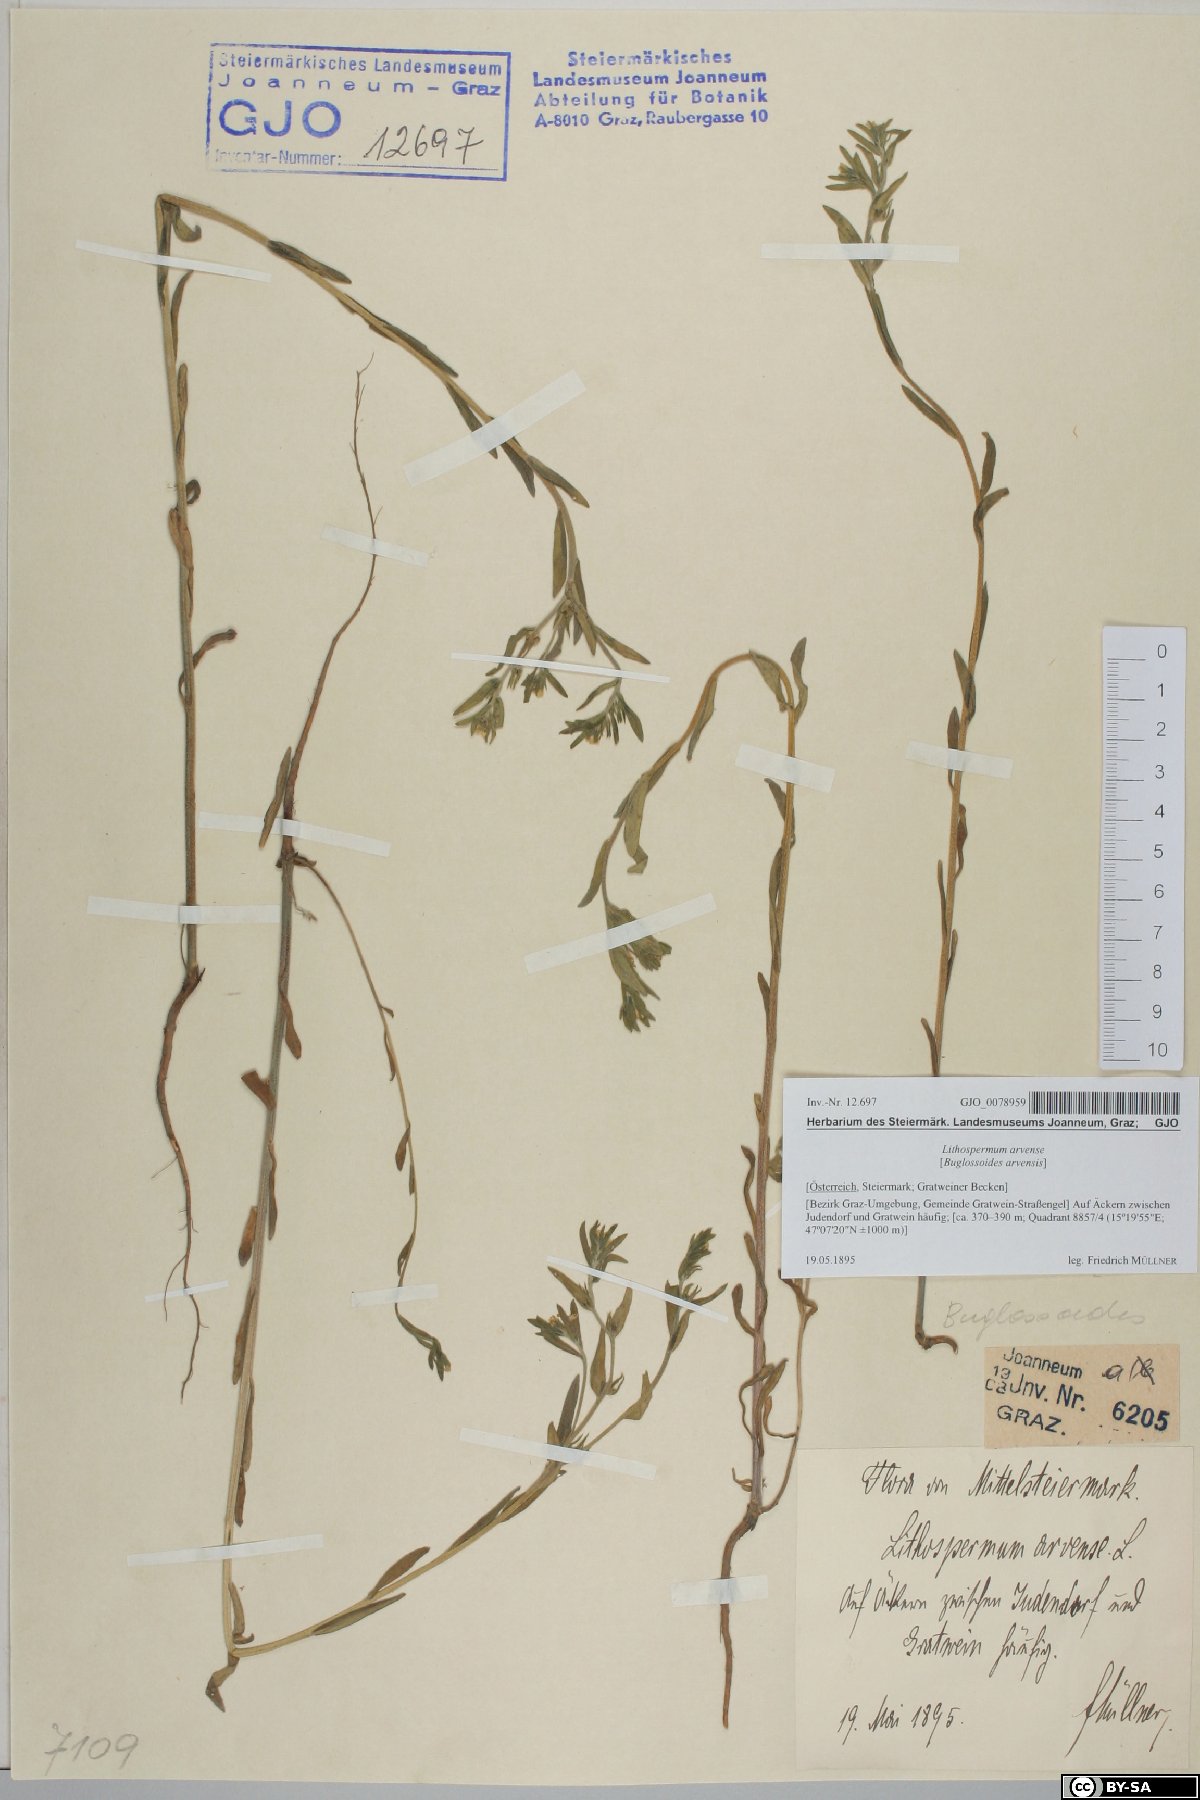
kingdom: Plantae
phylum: Tracheophyta
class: Magnoliopsida
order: Boraginales
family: Boraginaceae
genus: Buglossoides
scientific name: Buglossoides arvensis
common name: Corn gromwell
